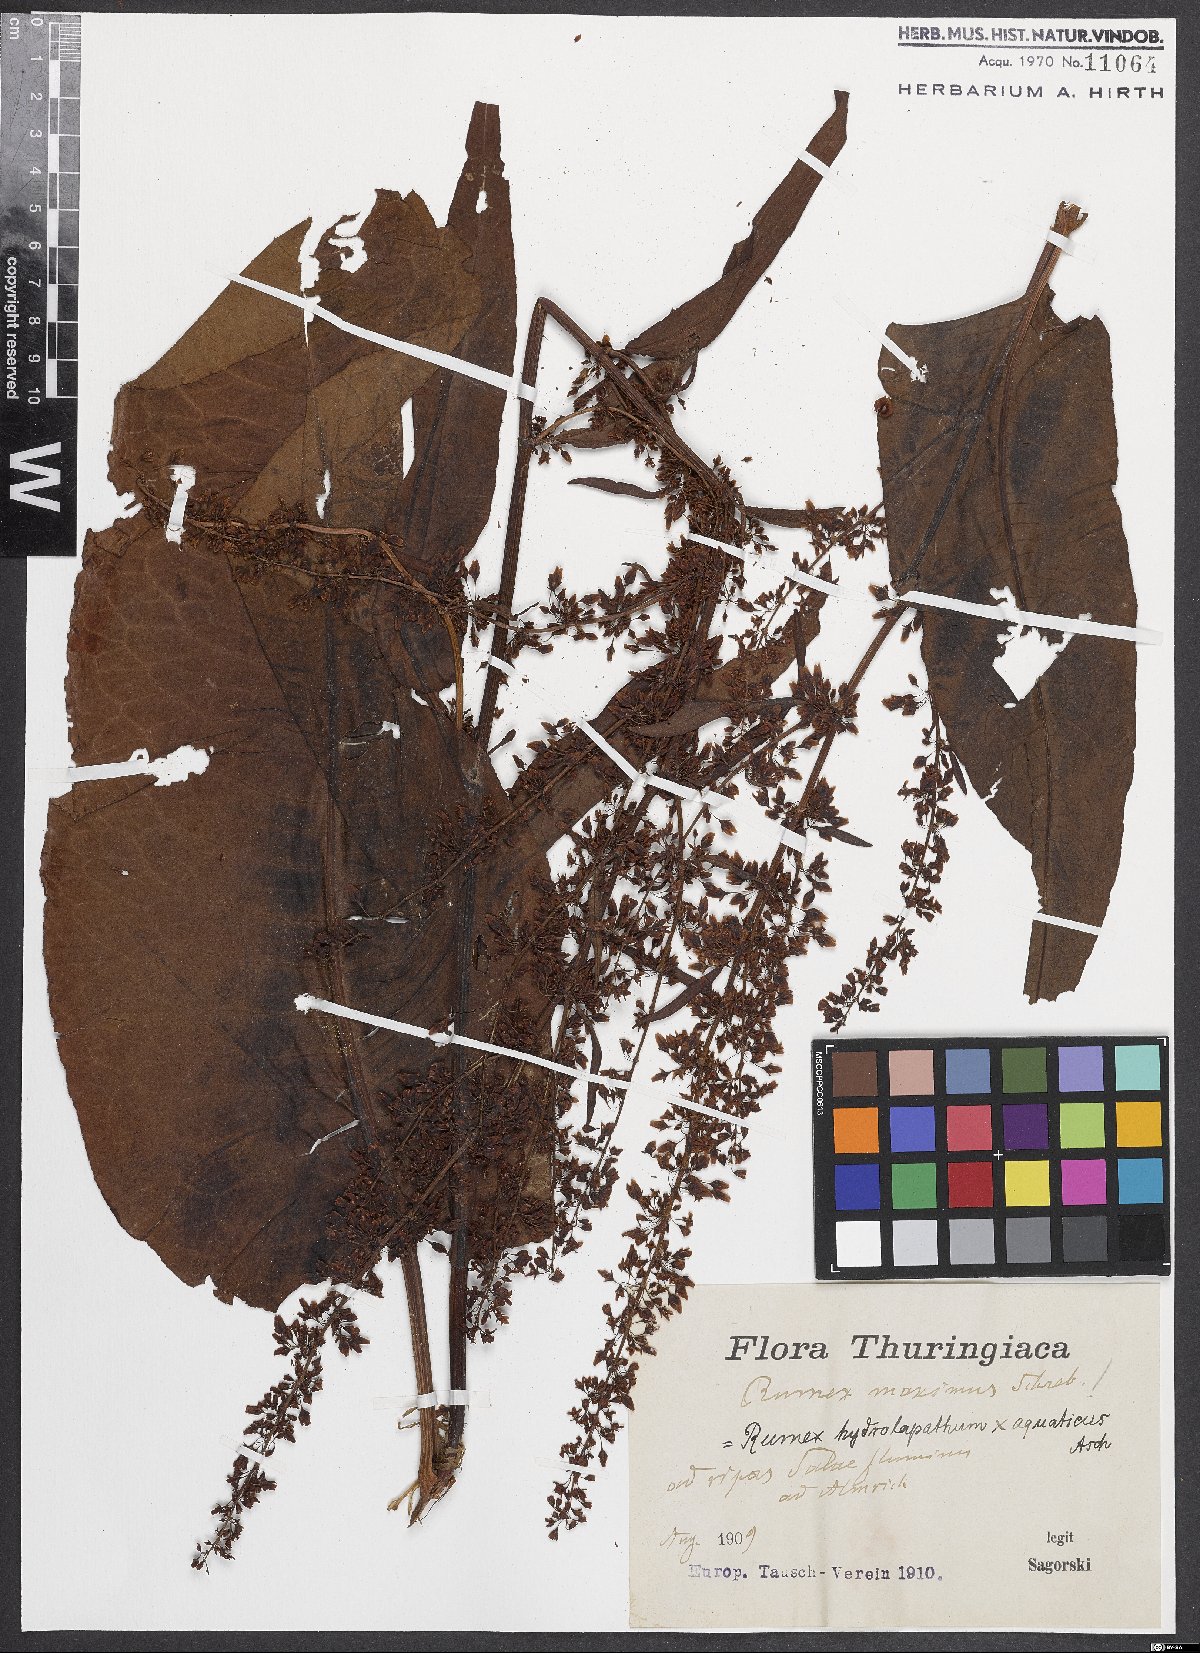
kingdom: Plantae
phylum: Tracheophyta
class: Magnoliopsida
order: Caryophyllales
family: Polygonaceae
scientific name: Polygonaceae
